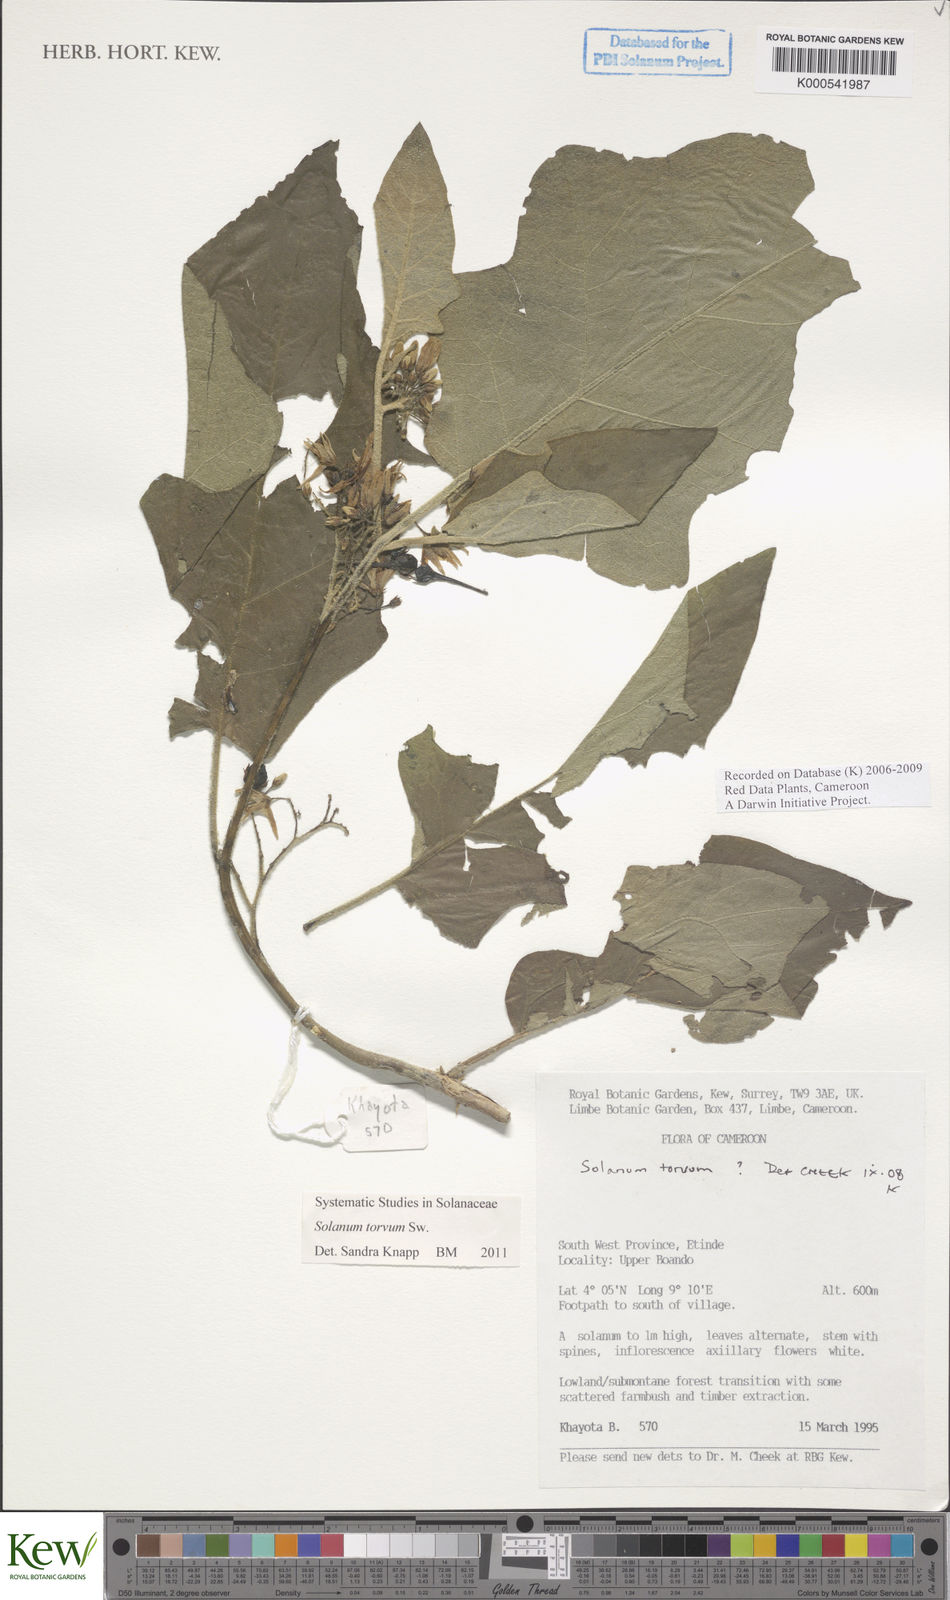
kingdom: Plantae
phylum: Tracheophyta
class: Magnoliopsida
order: Solanales
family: Solanaceae
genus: Solanum
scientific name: Solanum torvum
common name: Turkey berry
